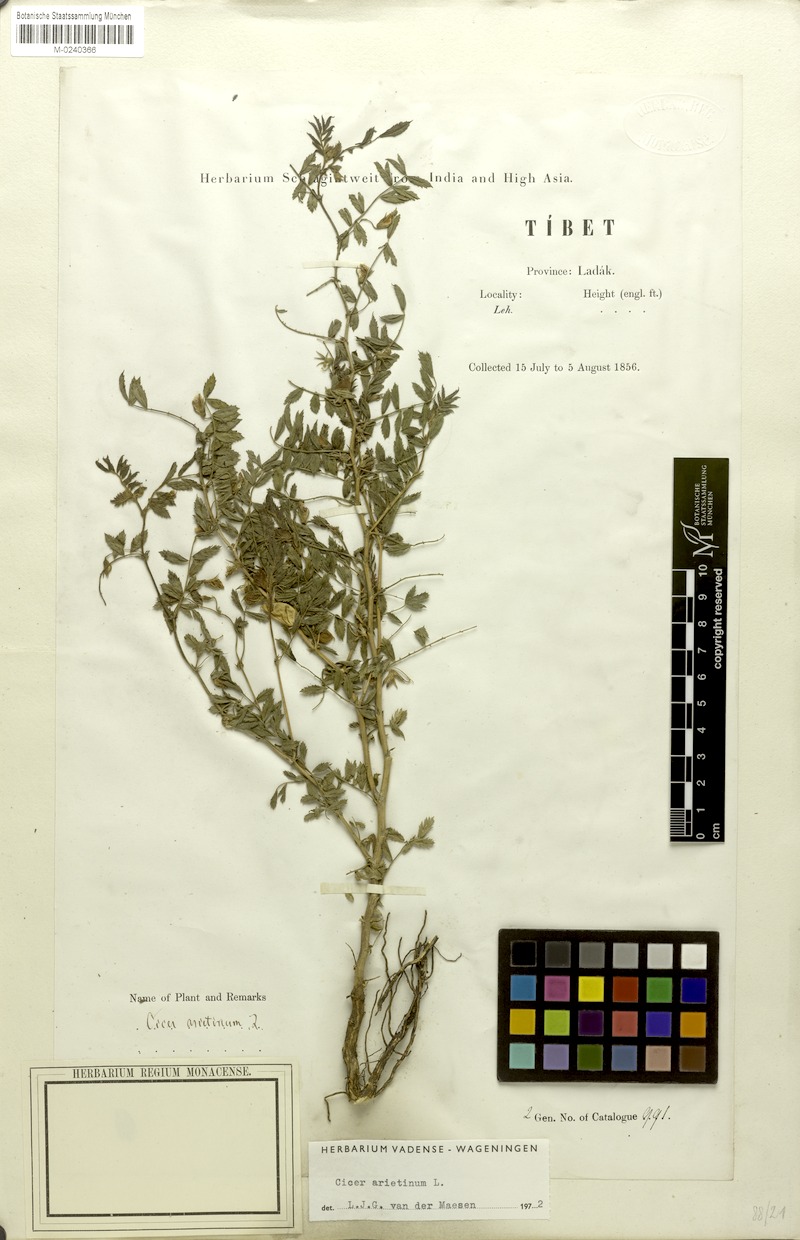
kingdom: Plantae
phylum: Tracheophyta
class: Magnoliopsida
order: Fabales
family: Fabaceae
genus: Cicer
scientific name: Cicer arietinum
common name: Chick pea
